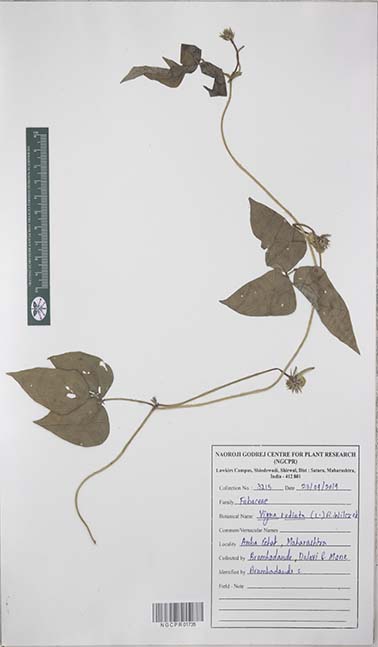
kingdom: Plantae
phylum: Tracheophyta
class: Magnoliopsida
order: Fabales
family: Fabaceae
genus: Vigna
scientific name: Vigna radiata
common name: Mung-bean
